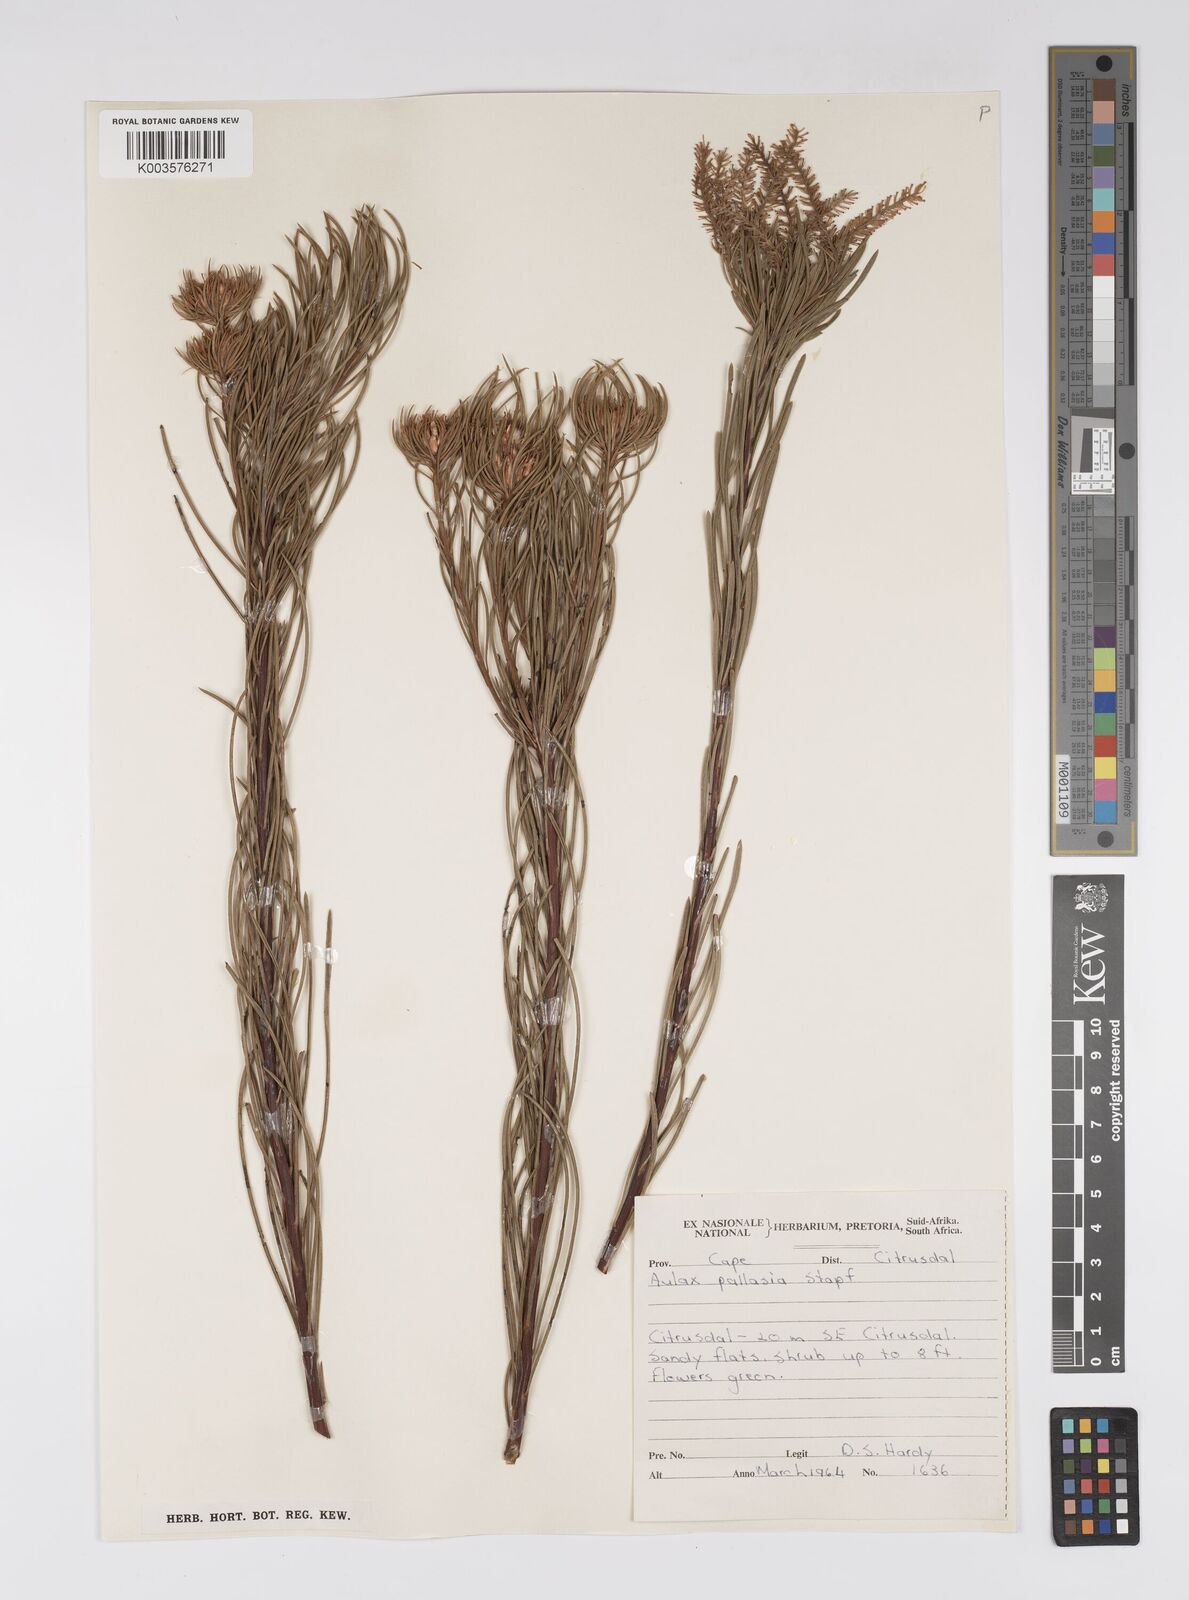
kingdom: Plantae
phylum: Tracheophyta
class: Magnoliopsida
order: Proteales
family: Proteaceae
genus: Aulax
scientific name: Aulax pallasia
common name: Needle-leaf featherbush
